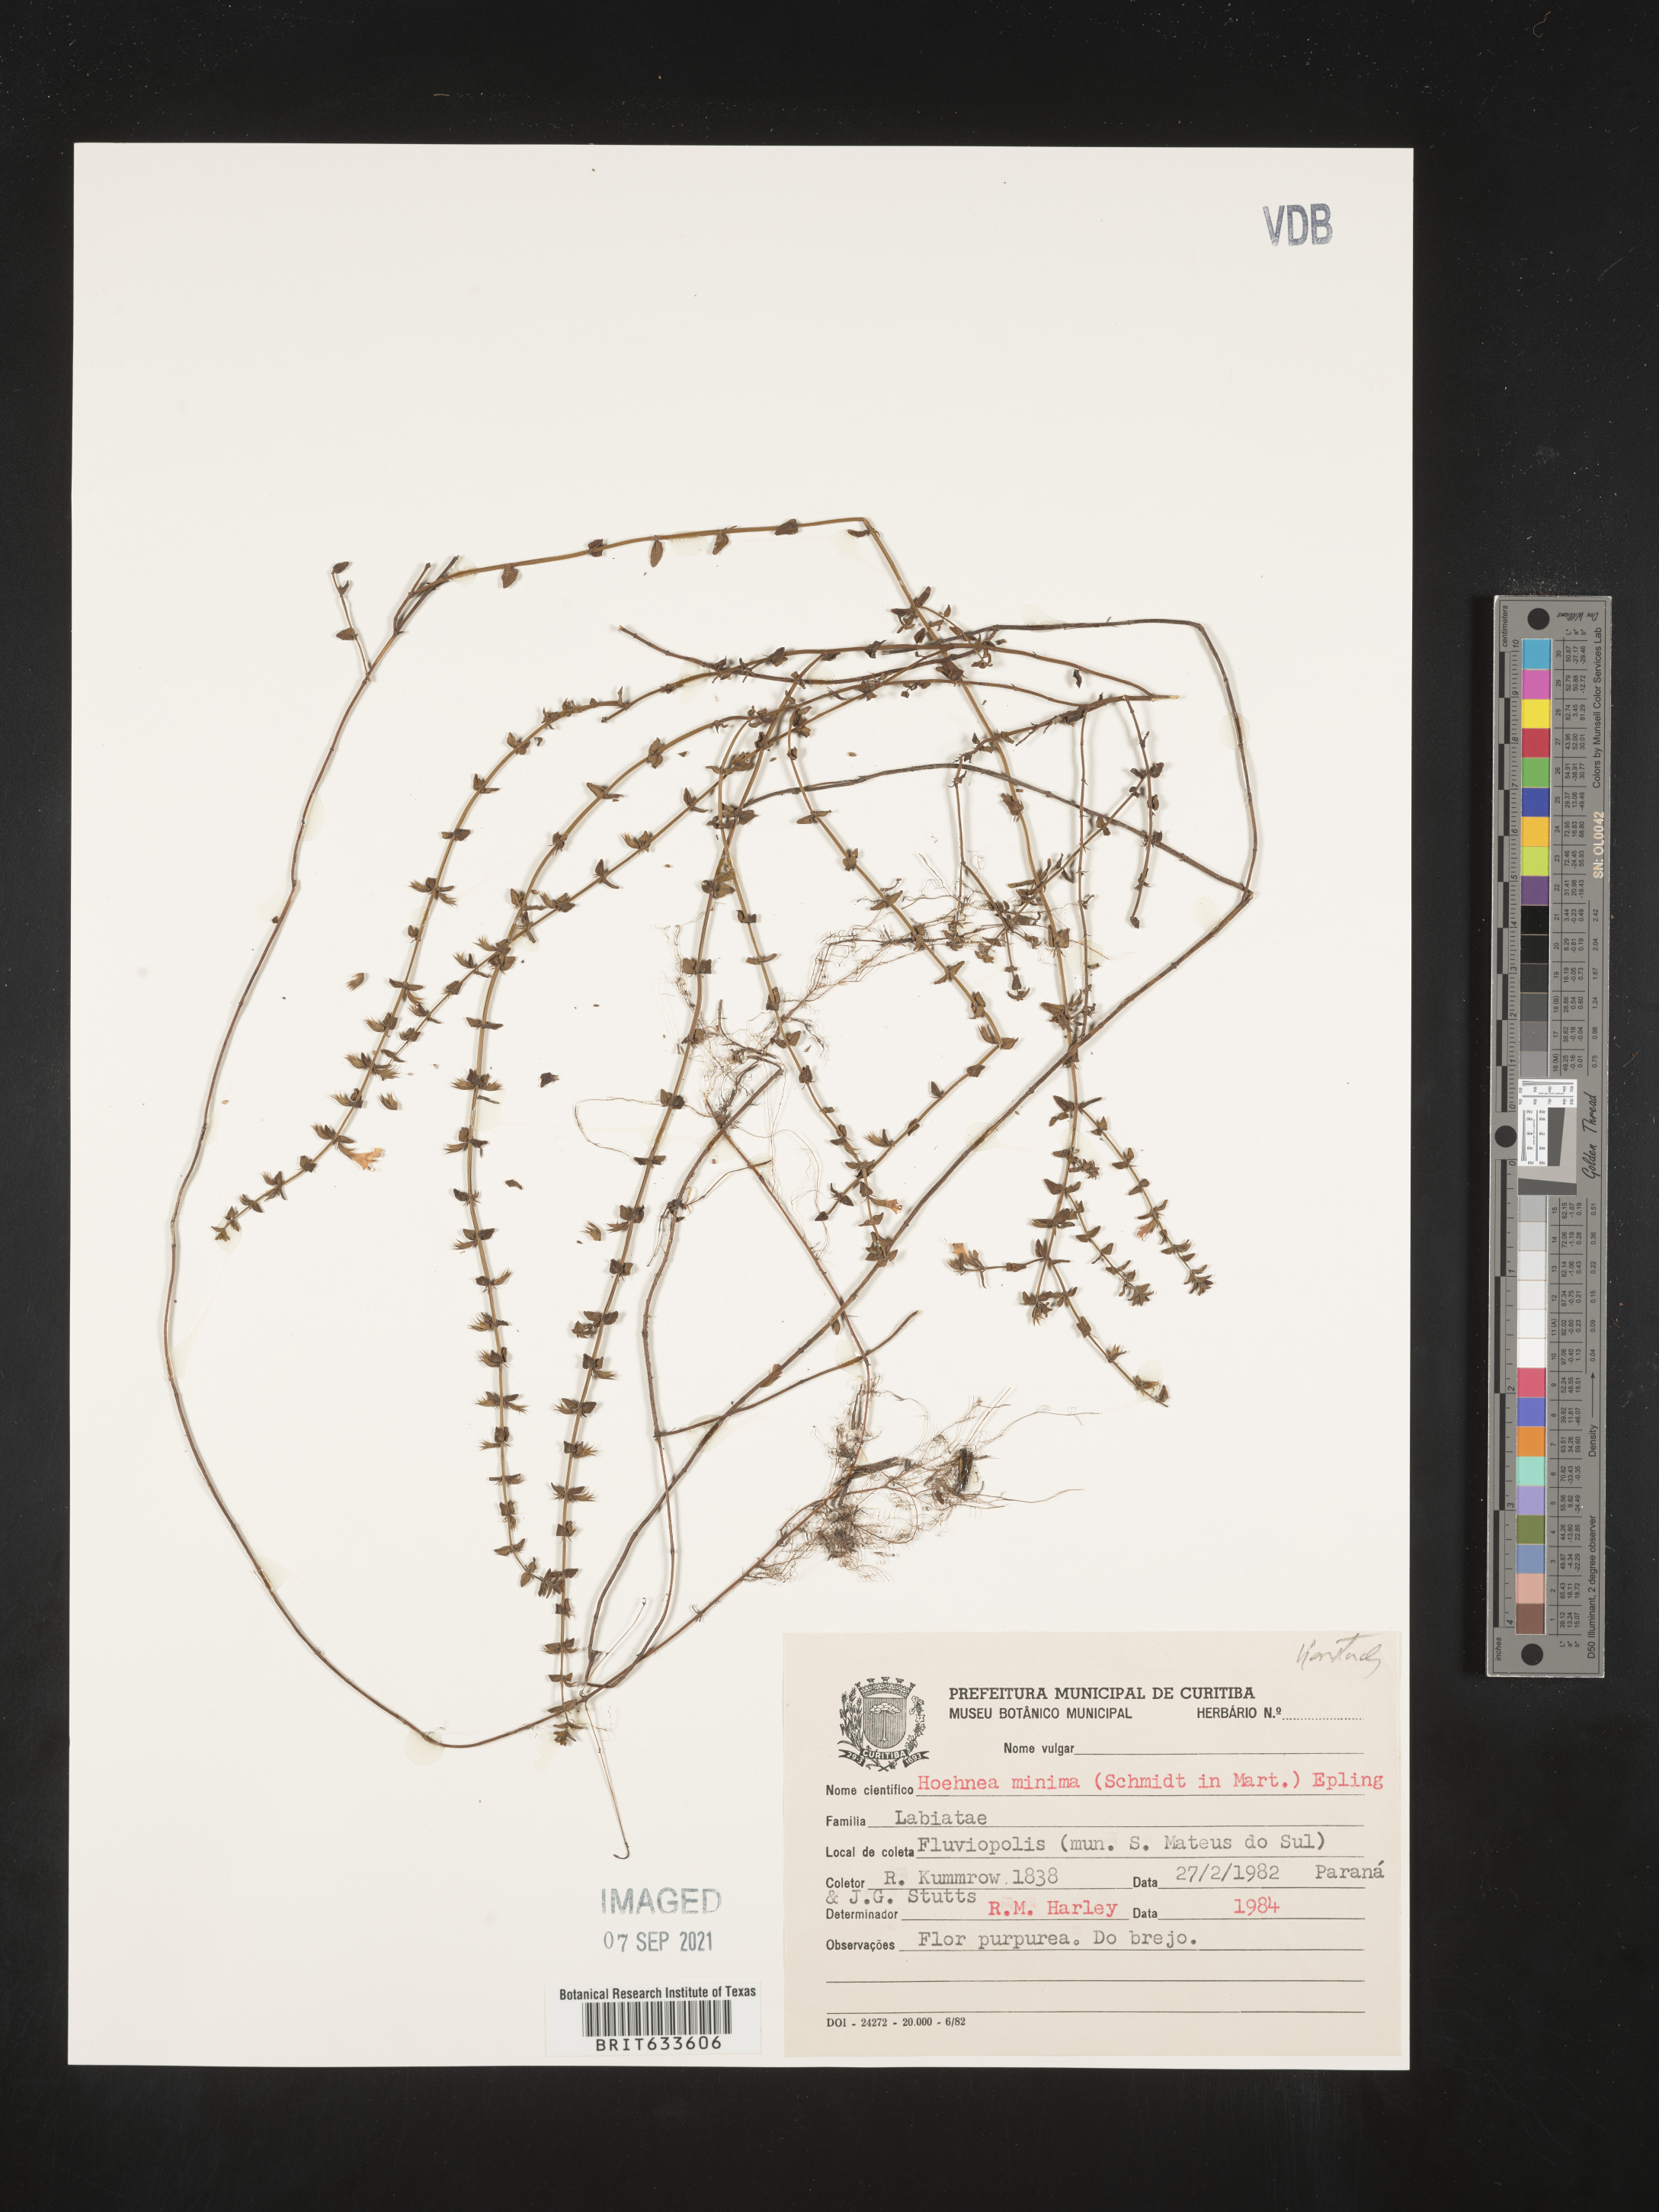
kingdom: Plantae
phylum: Tracheophyta
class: Magnoliopsida
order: Lamiales
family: Lamiaceae
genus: Hoehnea
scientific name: Hoehnea minima
